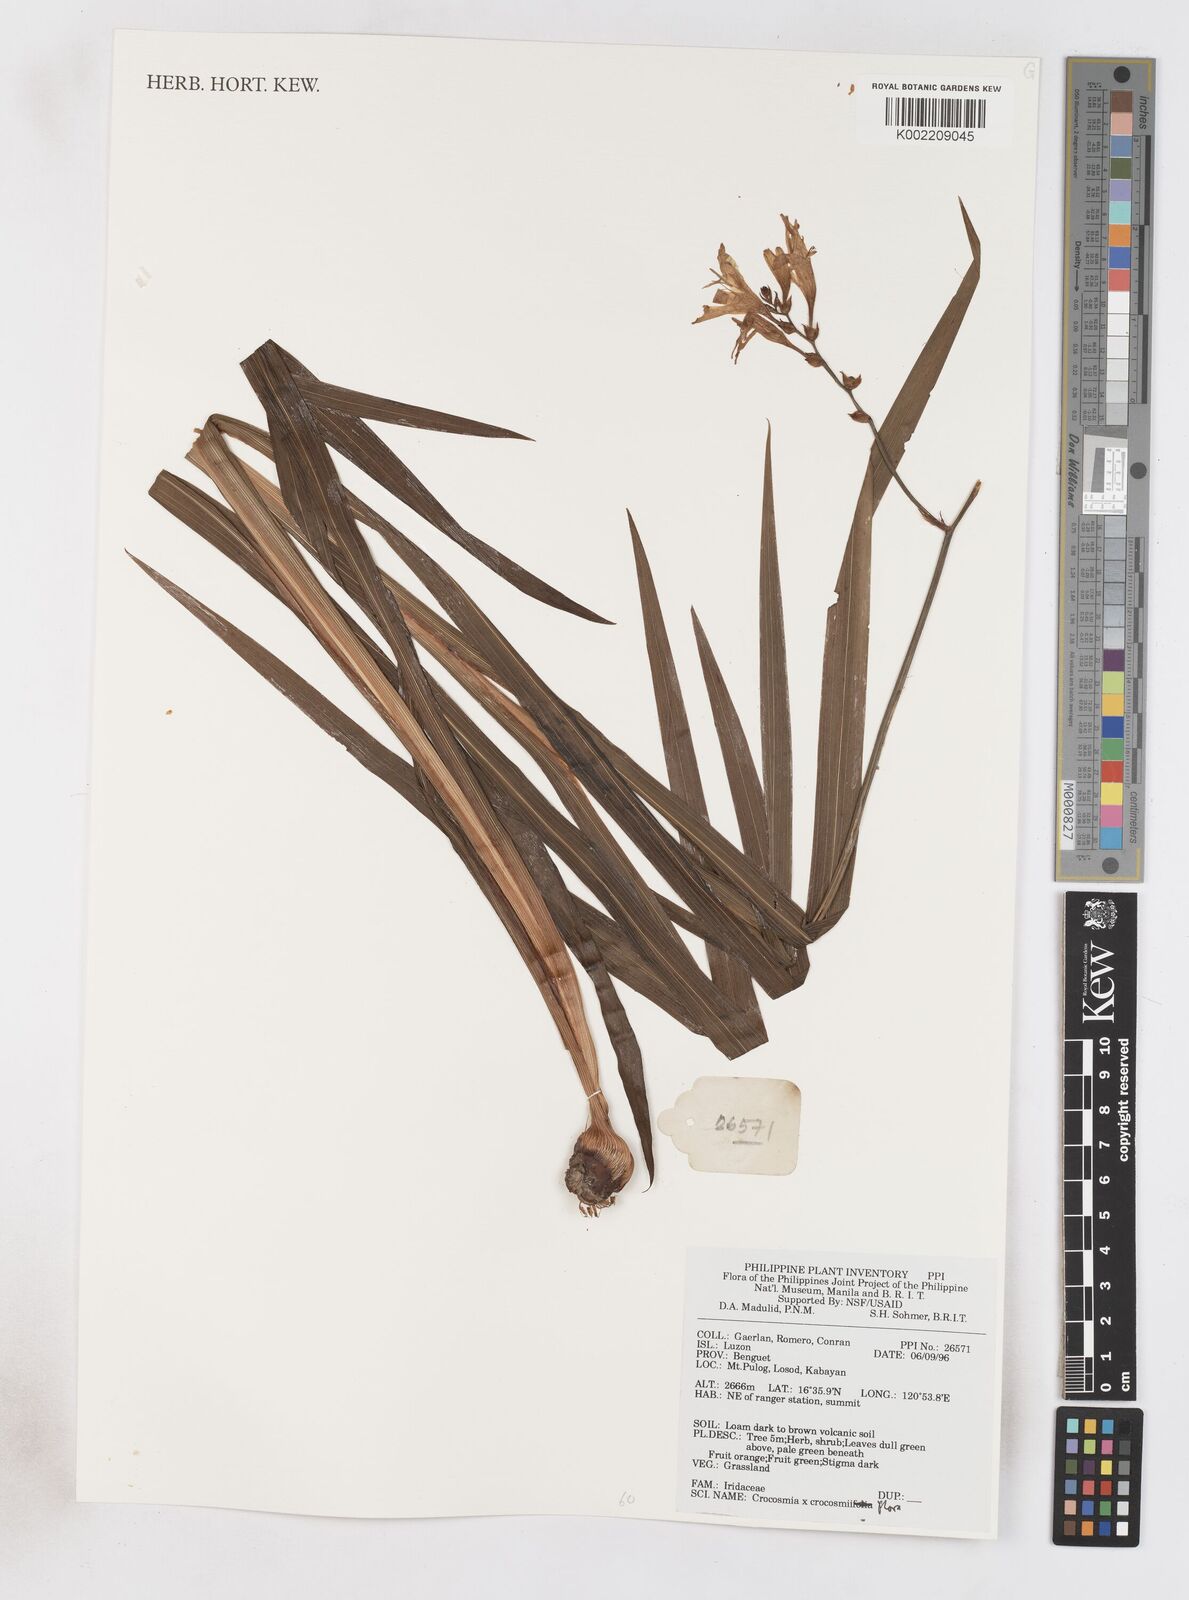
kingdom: Plantae
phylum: Tracheophyta
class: Liliopsida
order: Asparagales
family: Iridaceae
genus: Crocosmia
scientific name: Crocosmia crocosmiiflora
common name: Montbretia
